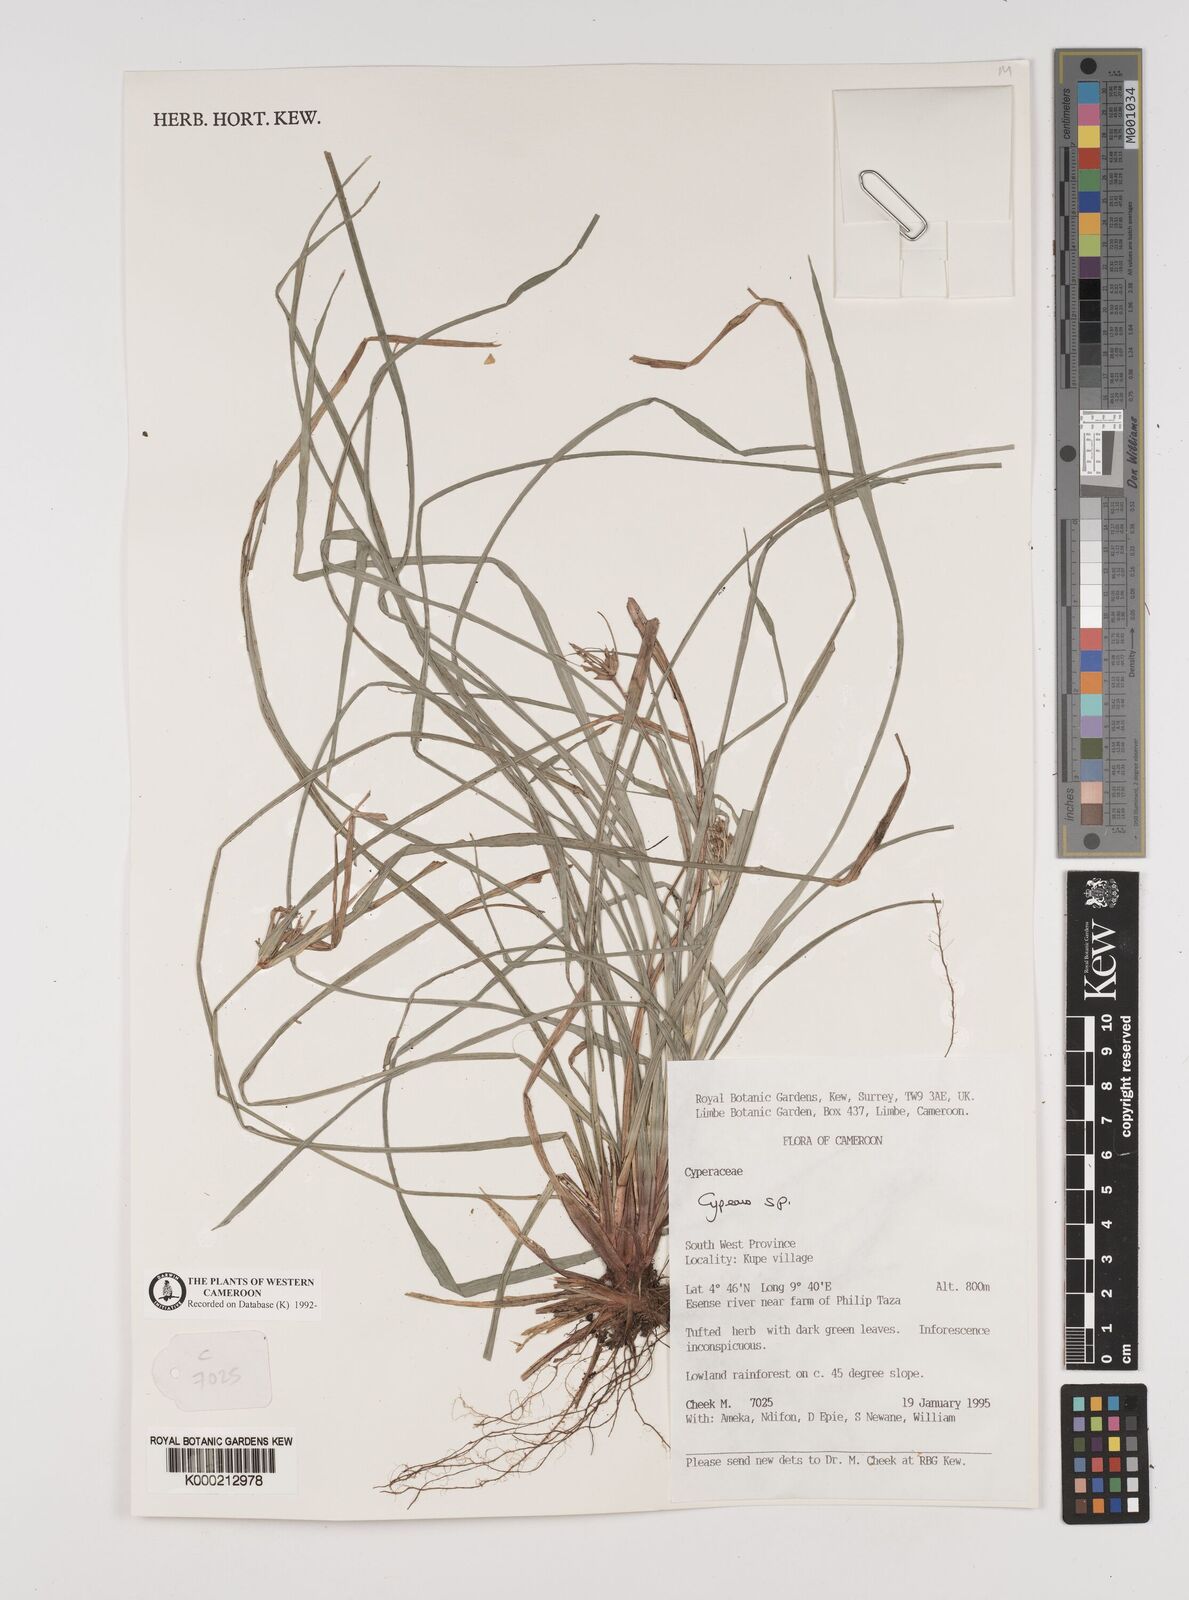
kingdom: Plantae
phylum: Tracheophyta
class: Liliopsida
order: Poales
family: Cyperaceae
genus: Cyperus
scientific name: Cyperus
